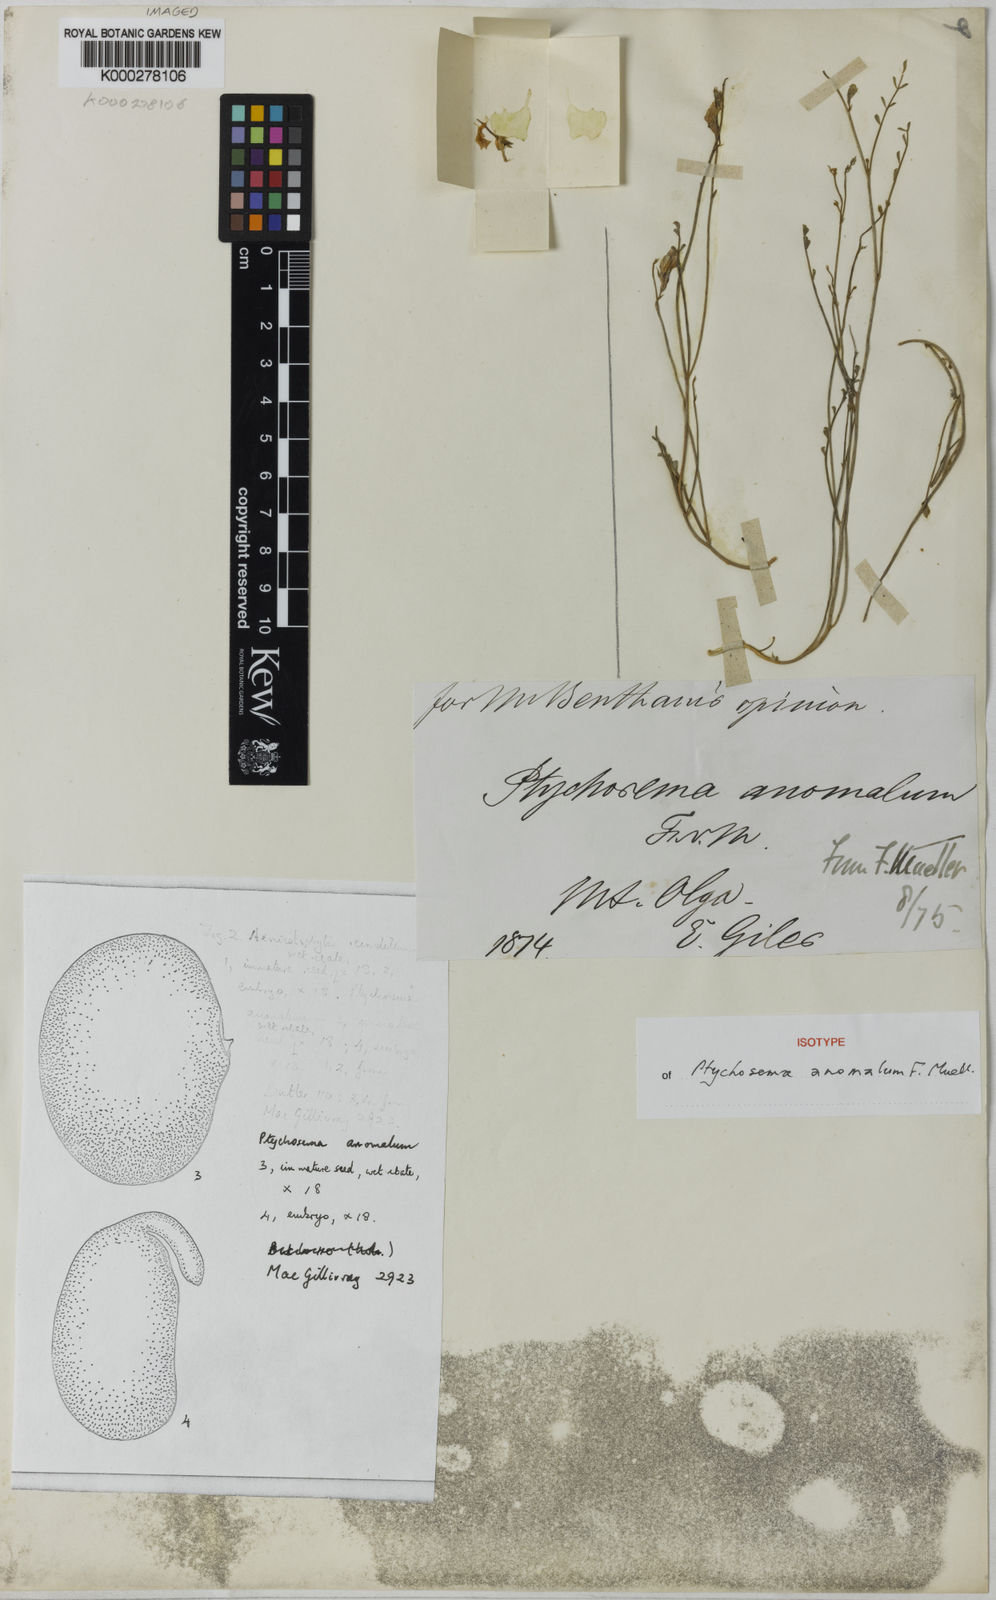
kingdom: Plantae
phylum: Tracheophyta
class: Magnoliopsida
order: Fabales
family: Fabaceae
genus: Aenictophyton
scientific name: Aenictophyton anomalum
